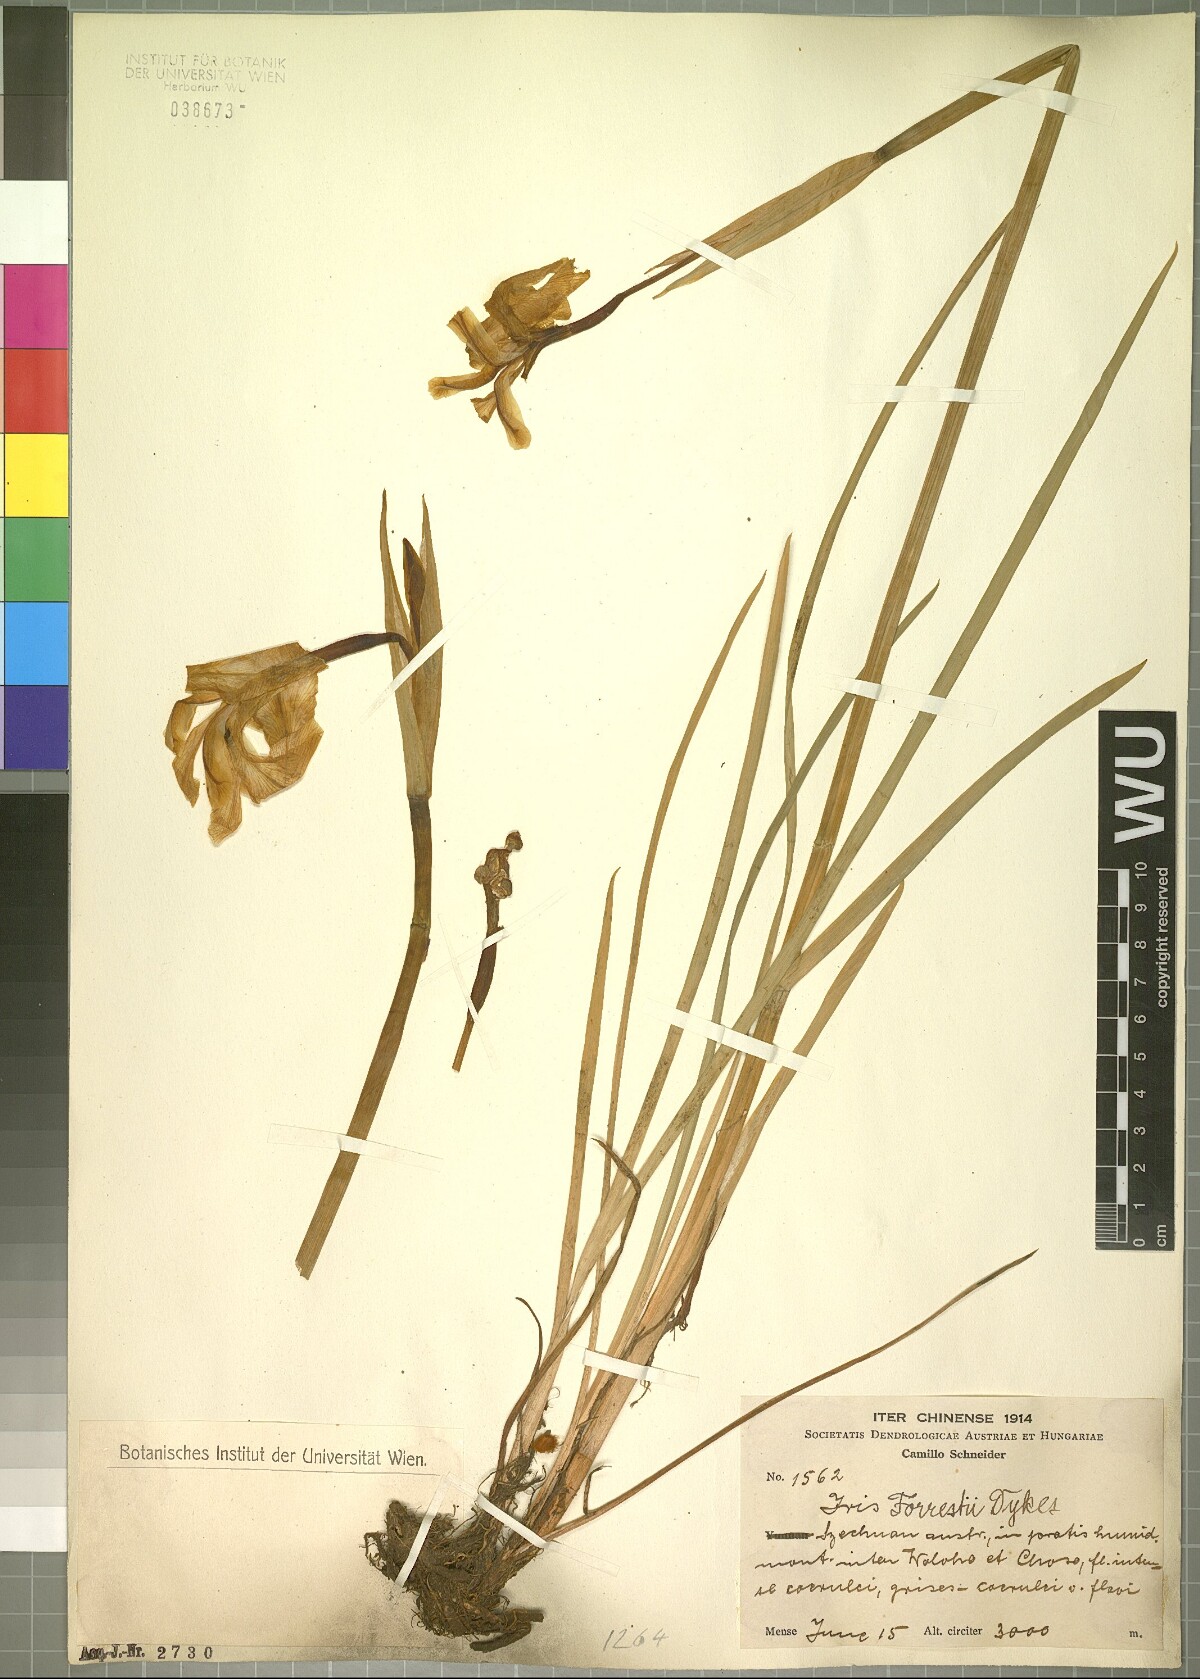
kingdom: Plantae
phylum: Tracheophyta
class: Liliopsida
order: Asparagales
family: Iridaceae
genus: Iris
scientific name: Iris forrestii
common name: Yunnan iris
